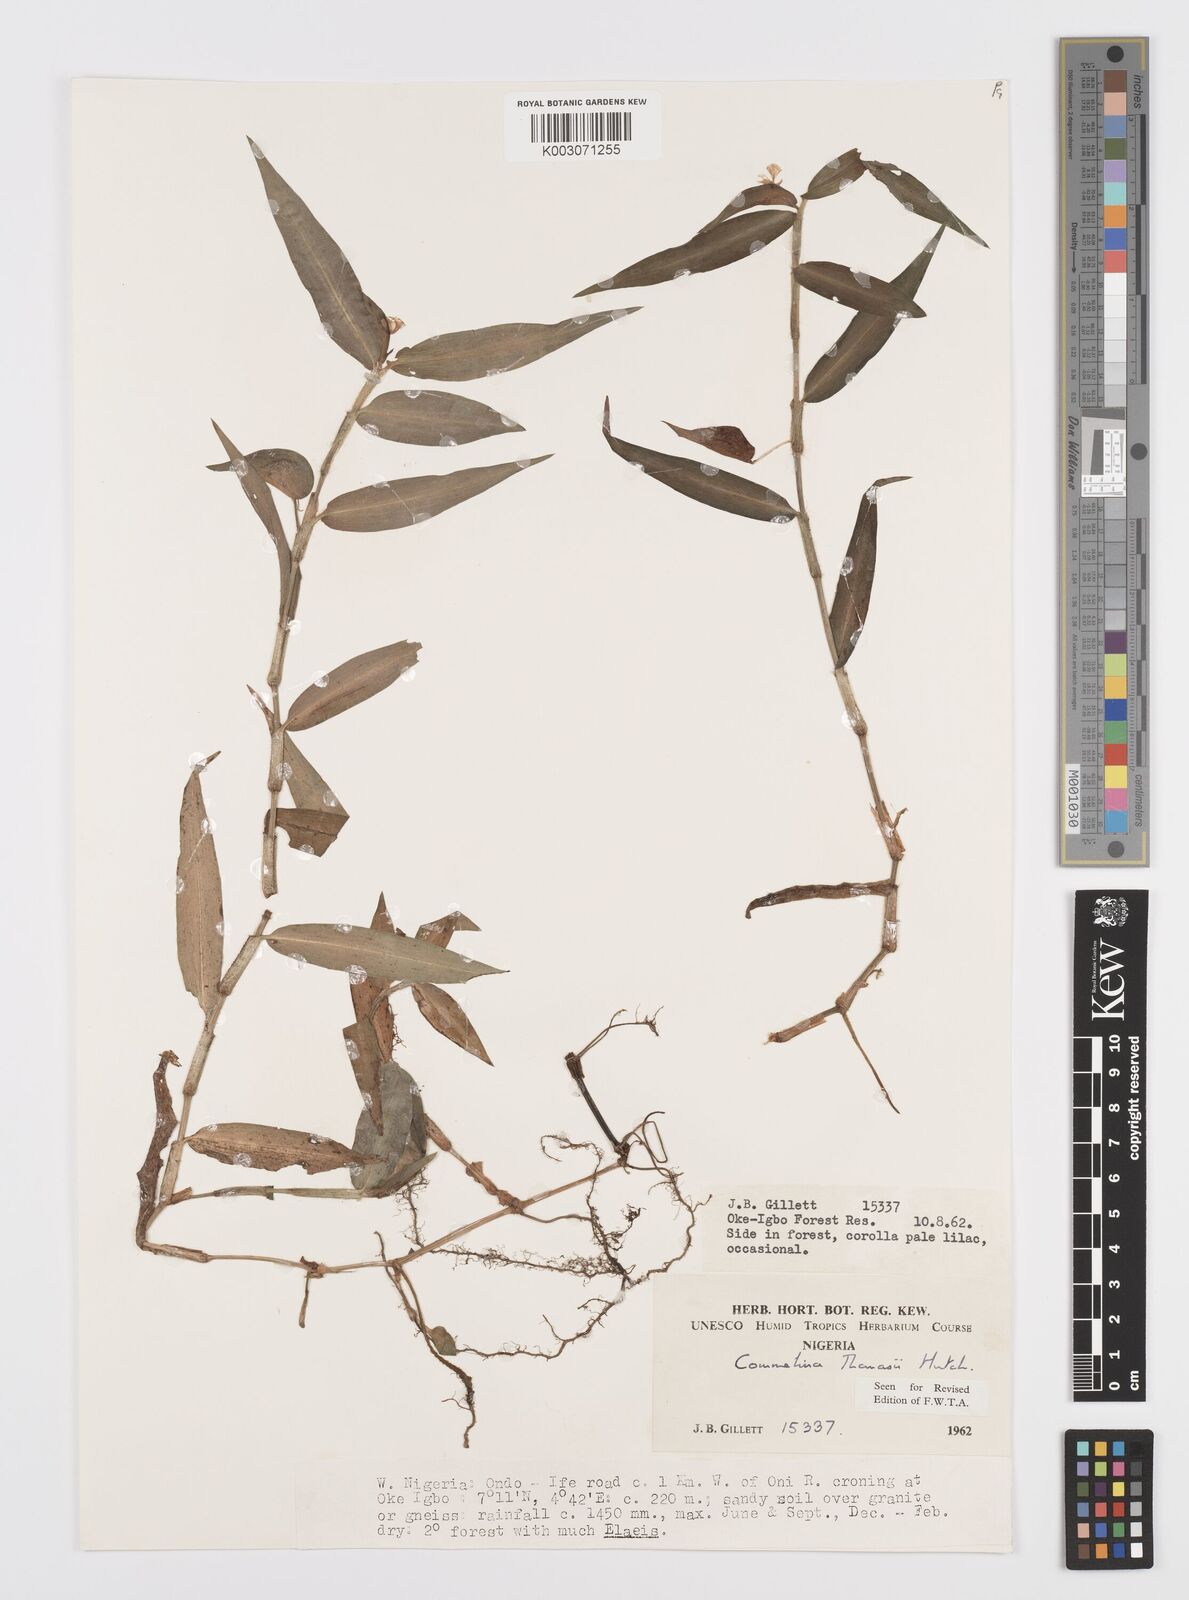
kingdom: Plantae
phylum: Tracheophyta
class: Liliopsida
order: Commelinales
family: Commelinaceae
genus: Commelina
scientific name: Commelina acutispatha
